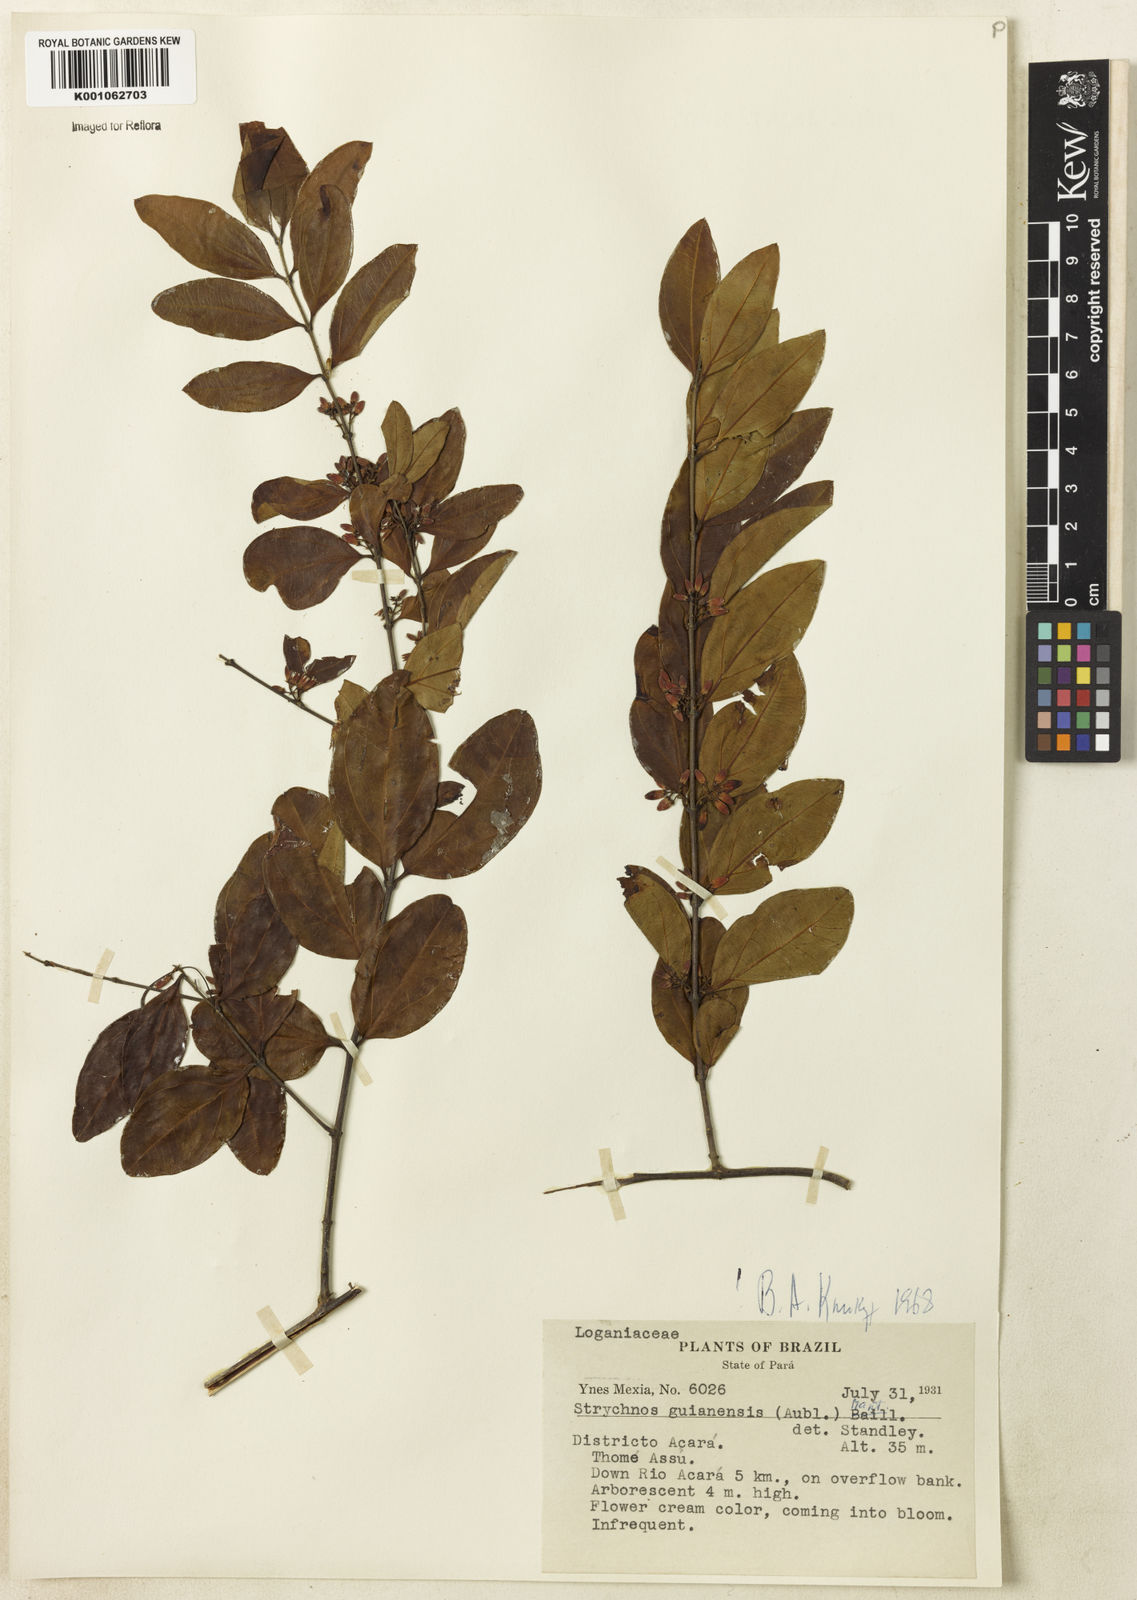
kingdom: Plantae
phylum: Tracheophyta
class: Magnoliopsida
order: Gentianales
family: Loganiaceae
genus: Strychnos
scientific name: Strychnos guianensis
